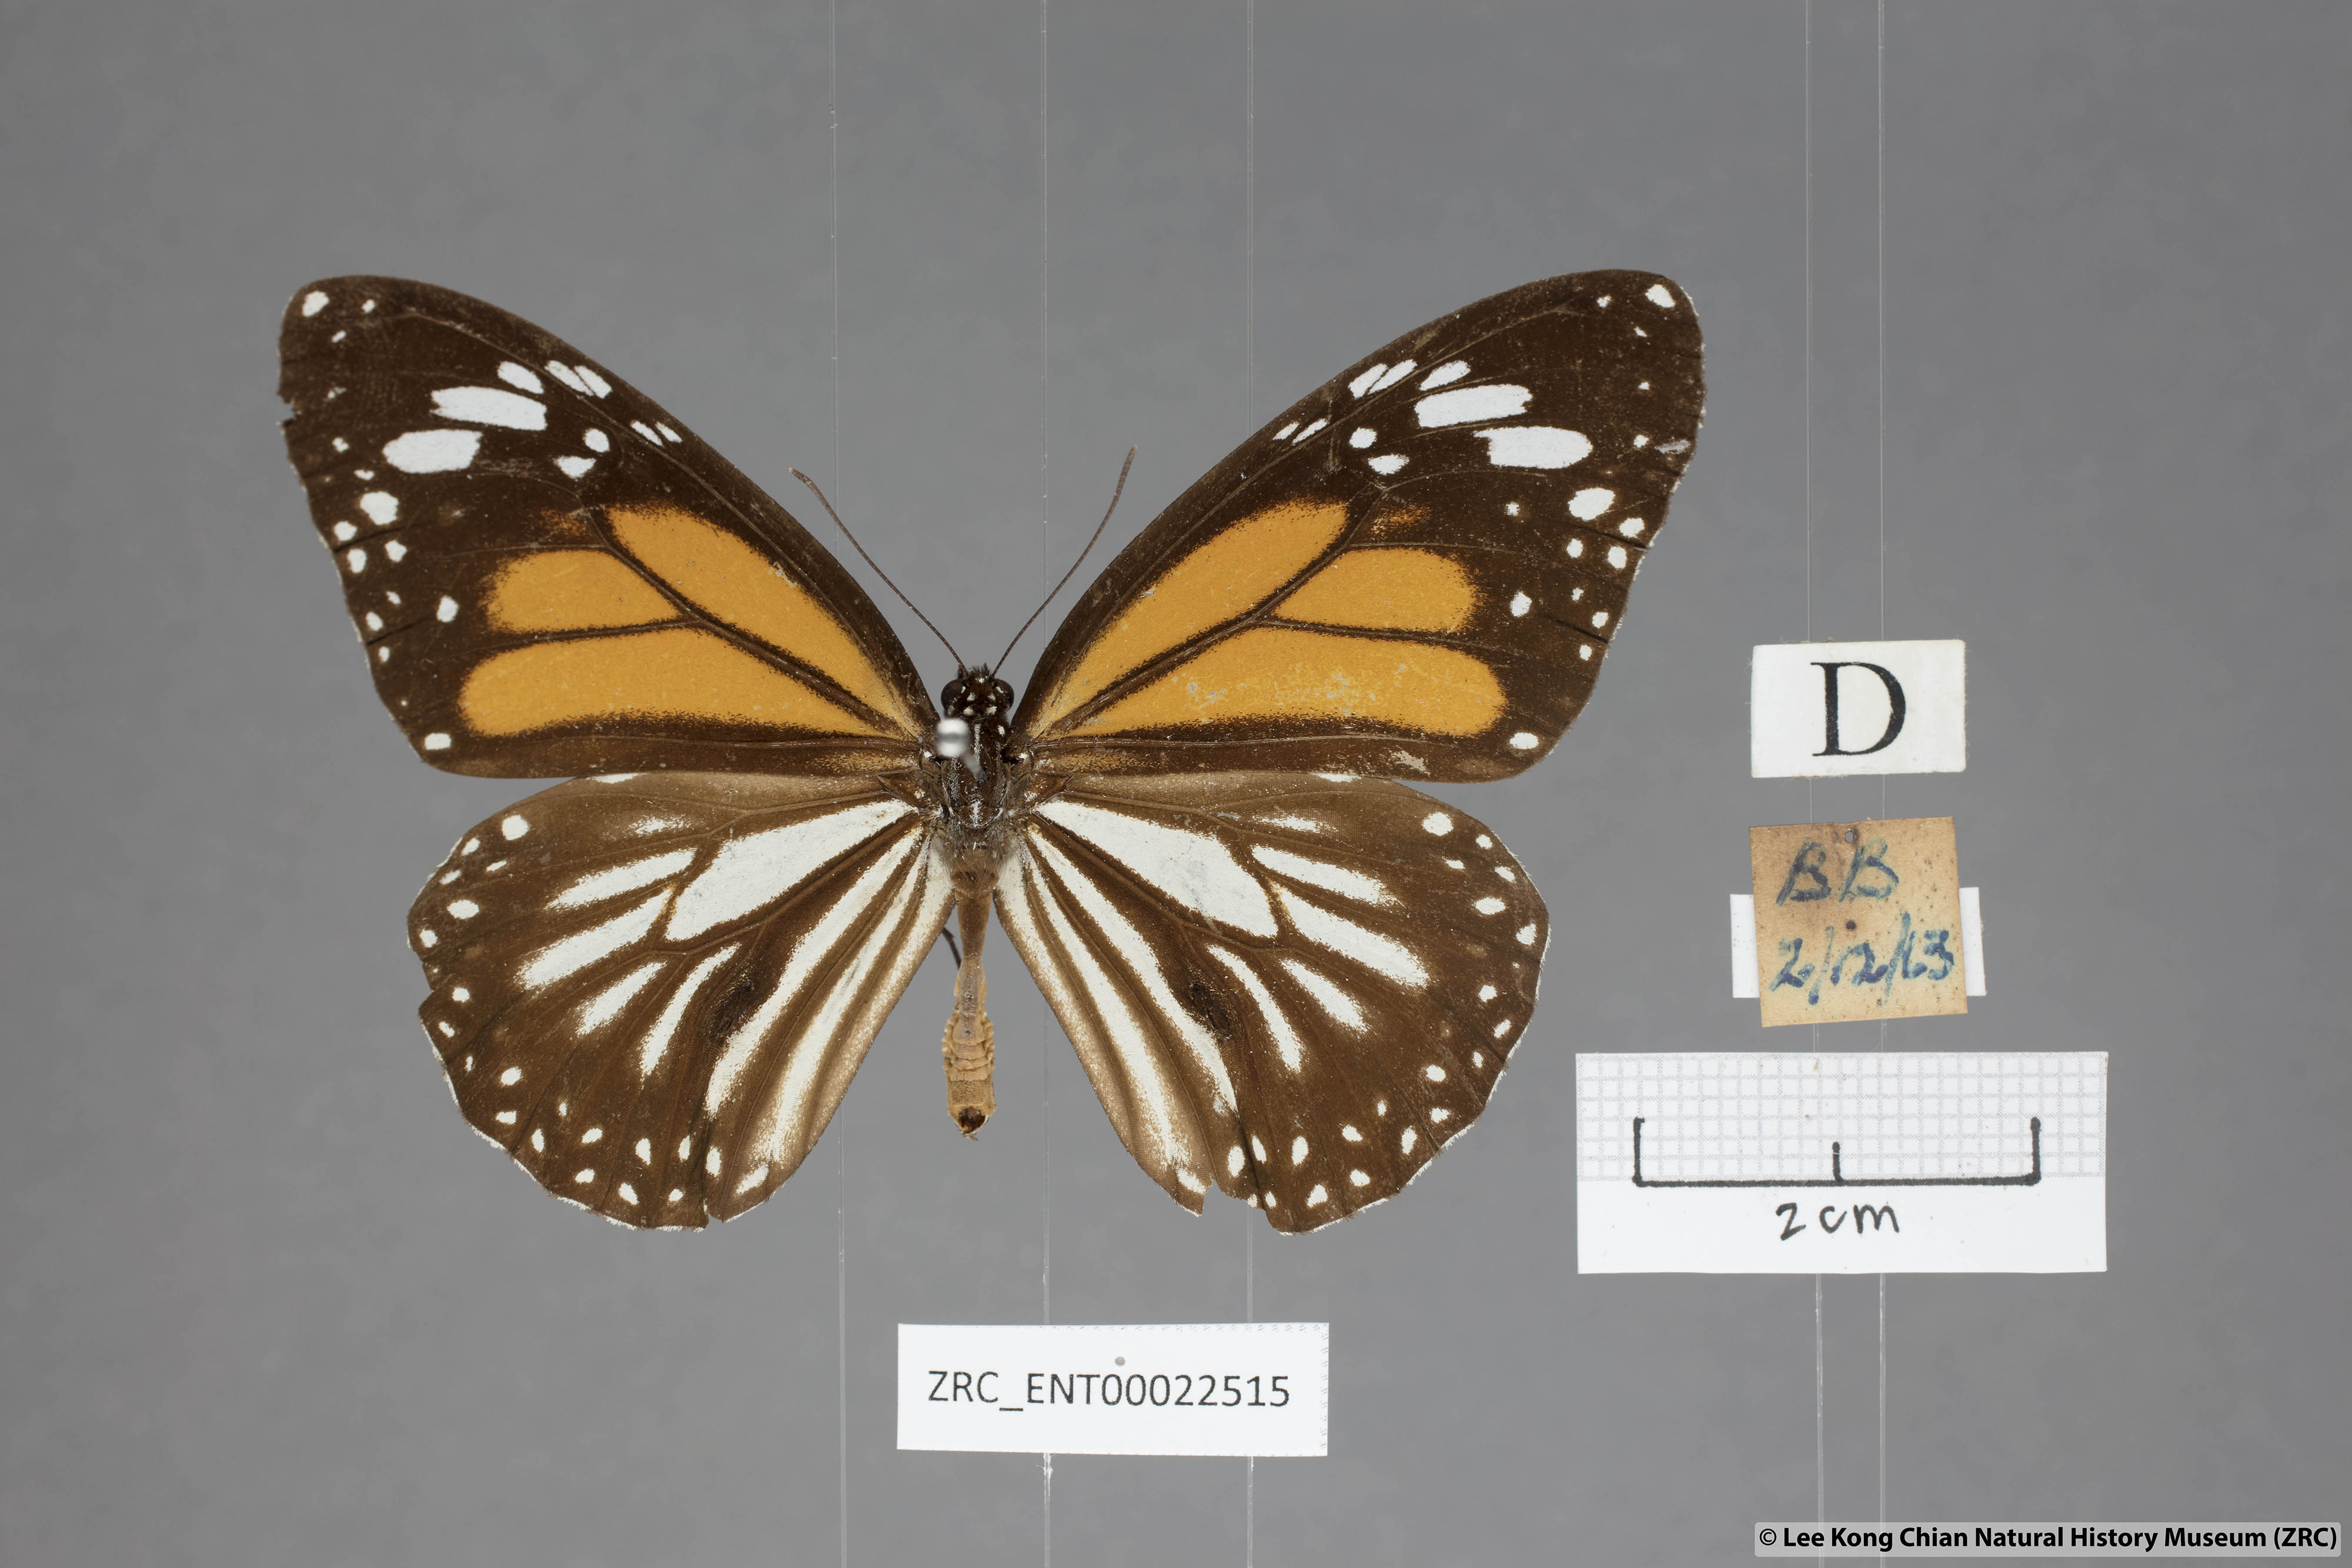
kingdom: Animalia
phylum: Arthropoda
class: Insecta
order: Lepidoptera
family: Nymphalidae
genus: Danaus
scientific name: Danaus melanippus
